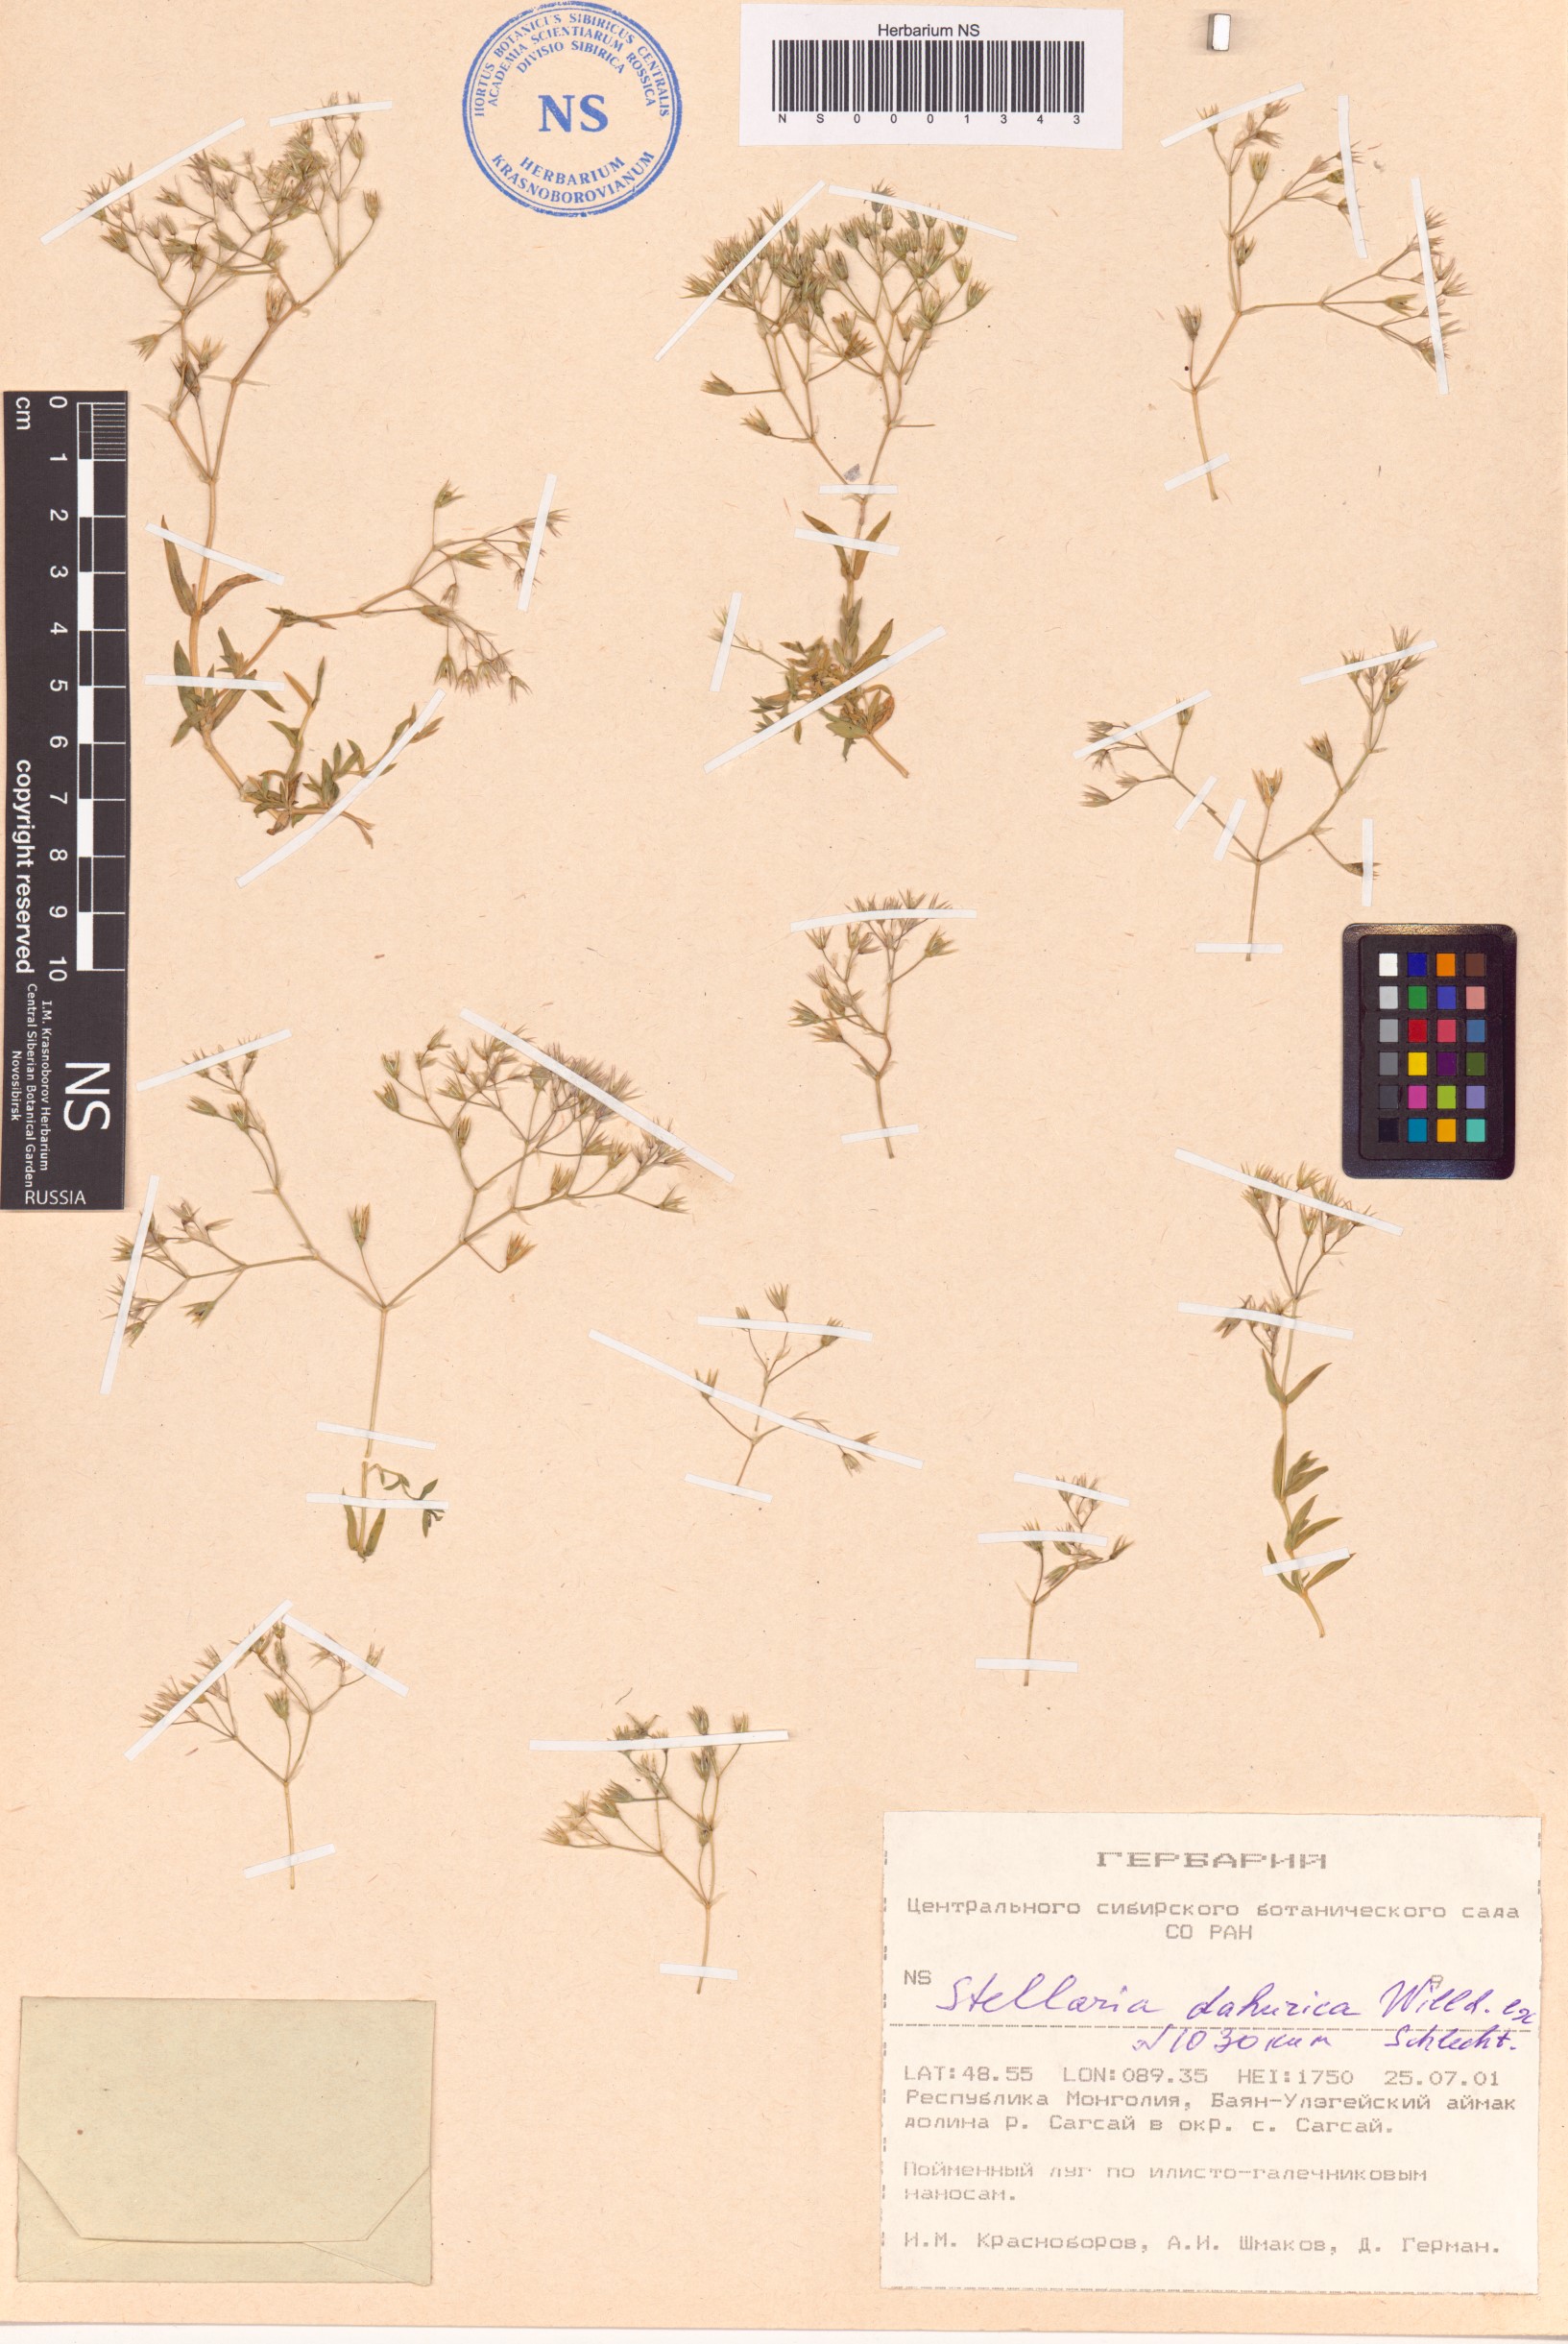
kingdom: Plantae
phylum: Tracheophyta
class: Magnoliopsida
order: Caryophyllales
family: Caryophyllaceae
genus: Stellaria
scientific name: Stellaria dahurica
